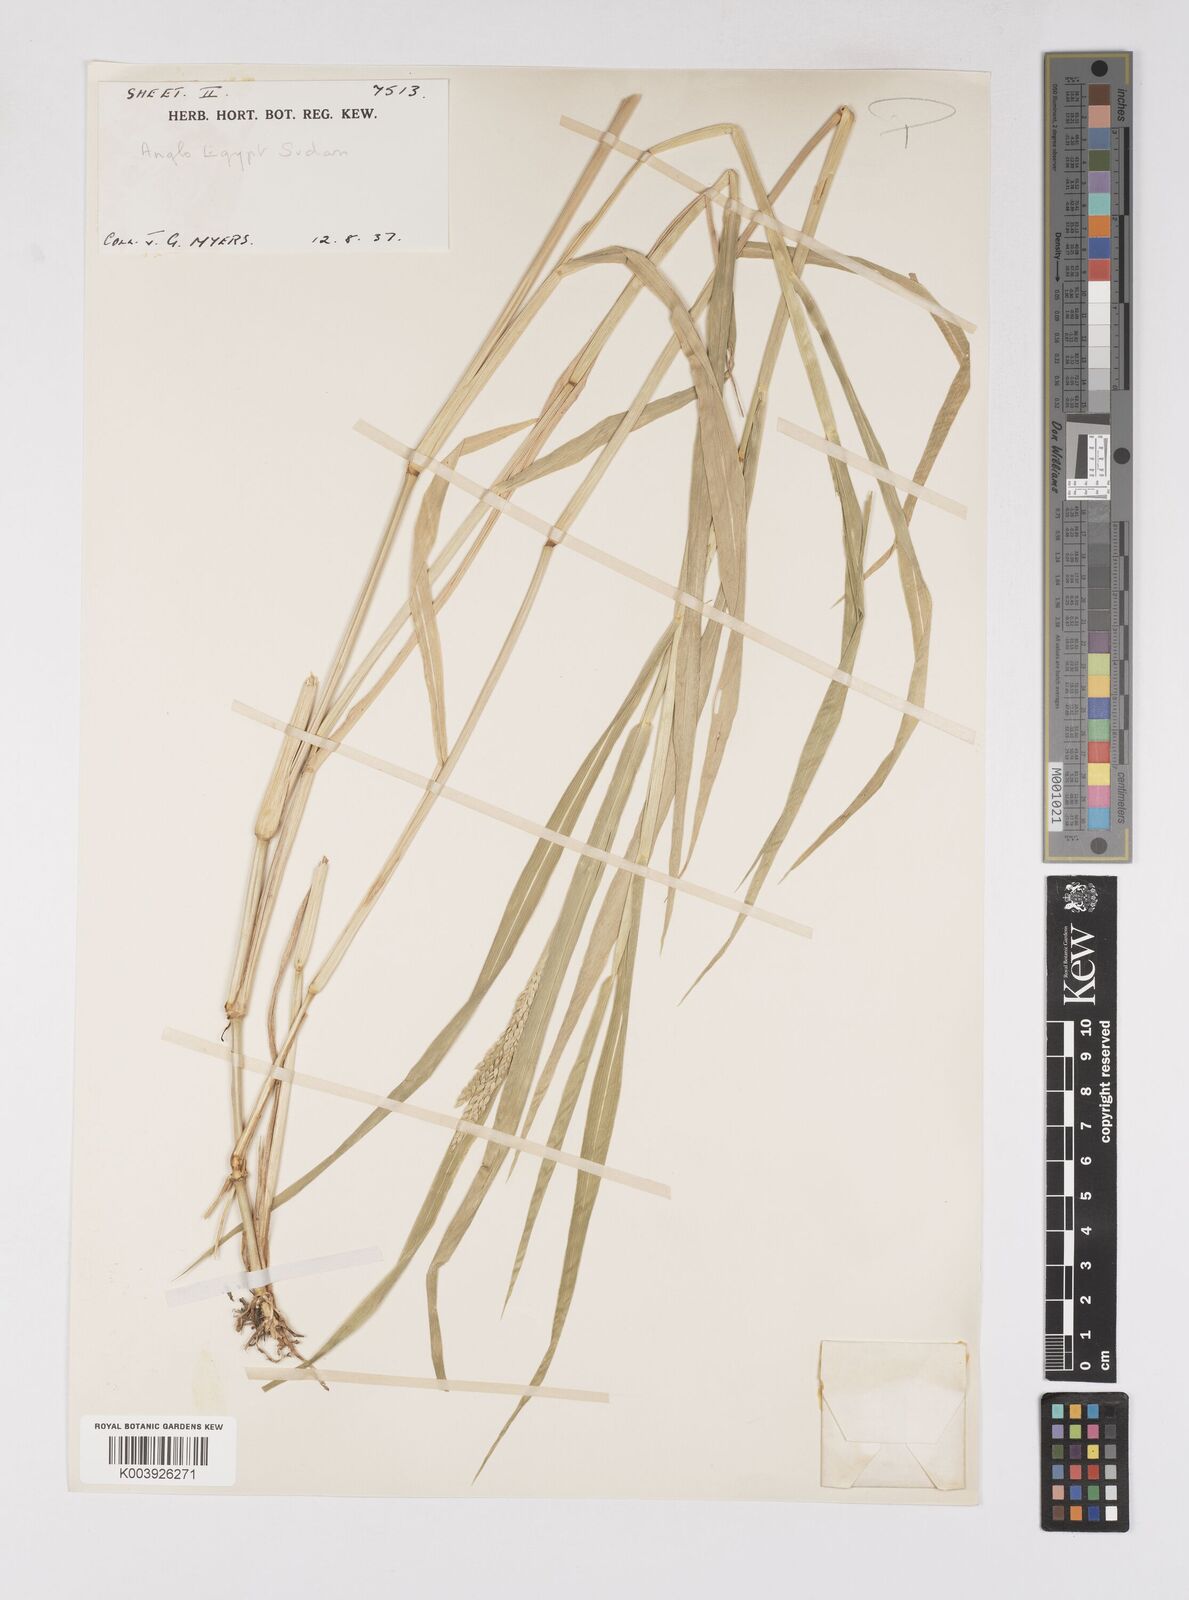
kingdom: Plantae
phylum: Tracheophyta
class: Liliopsida
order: Poales
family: Poaceae
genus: Eriochloa
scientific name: Eriochloa barbatus
